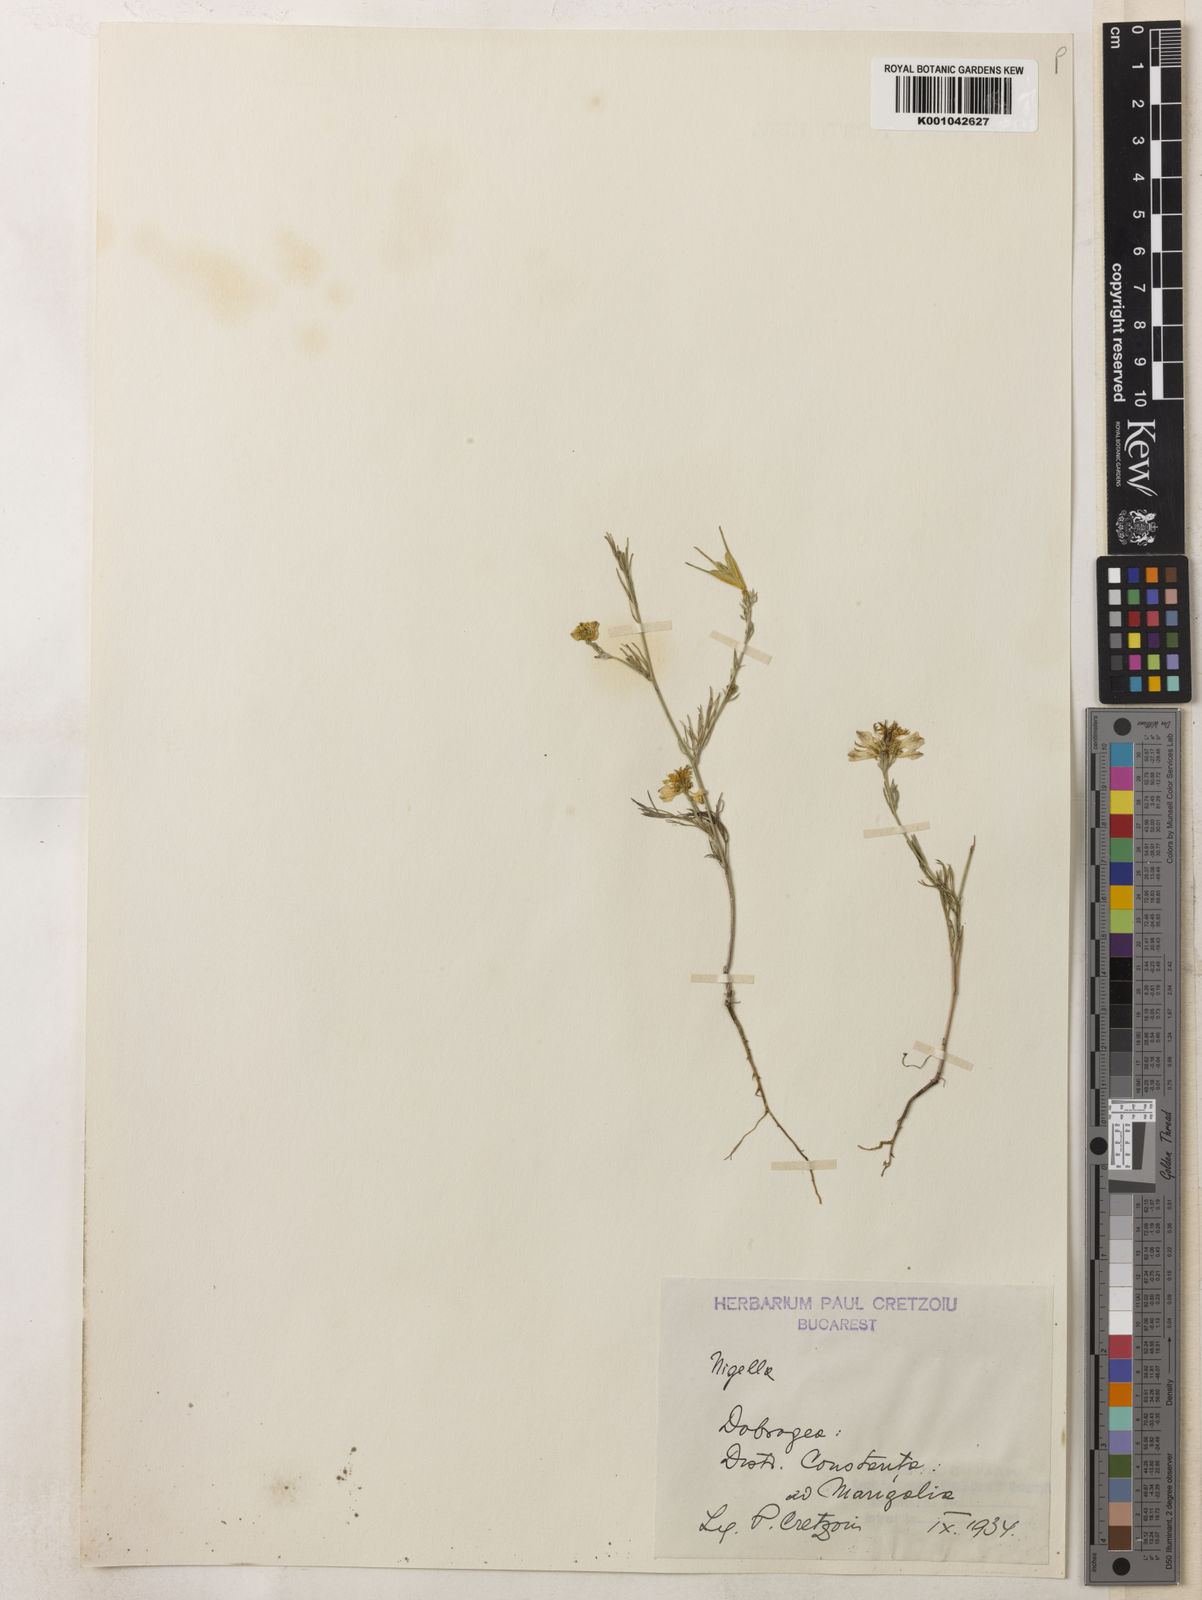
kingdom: Plantae
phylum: Tracheophyta
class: Magnoliopsida
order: Ranunculales
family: Ranunculaceae
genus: Nigella
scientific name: Nigella arvensis
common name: Wild fennel-flower
